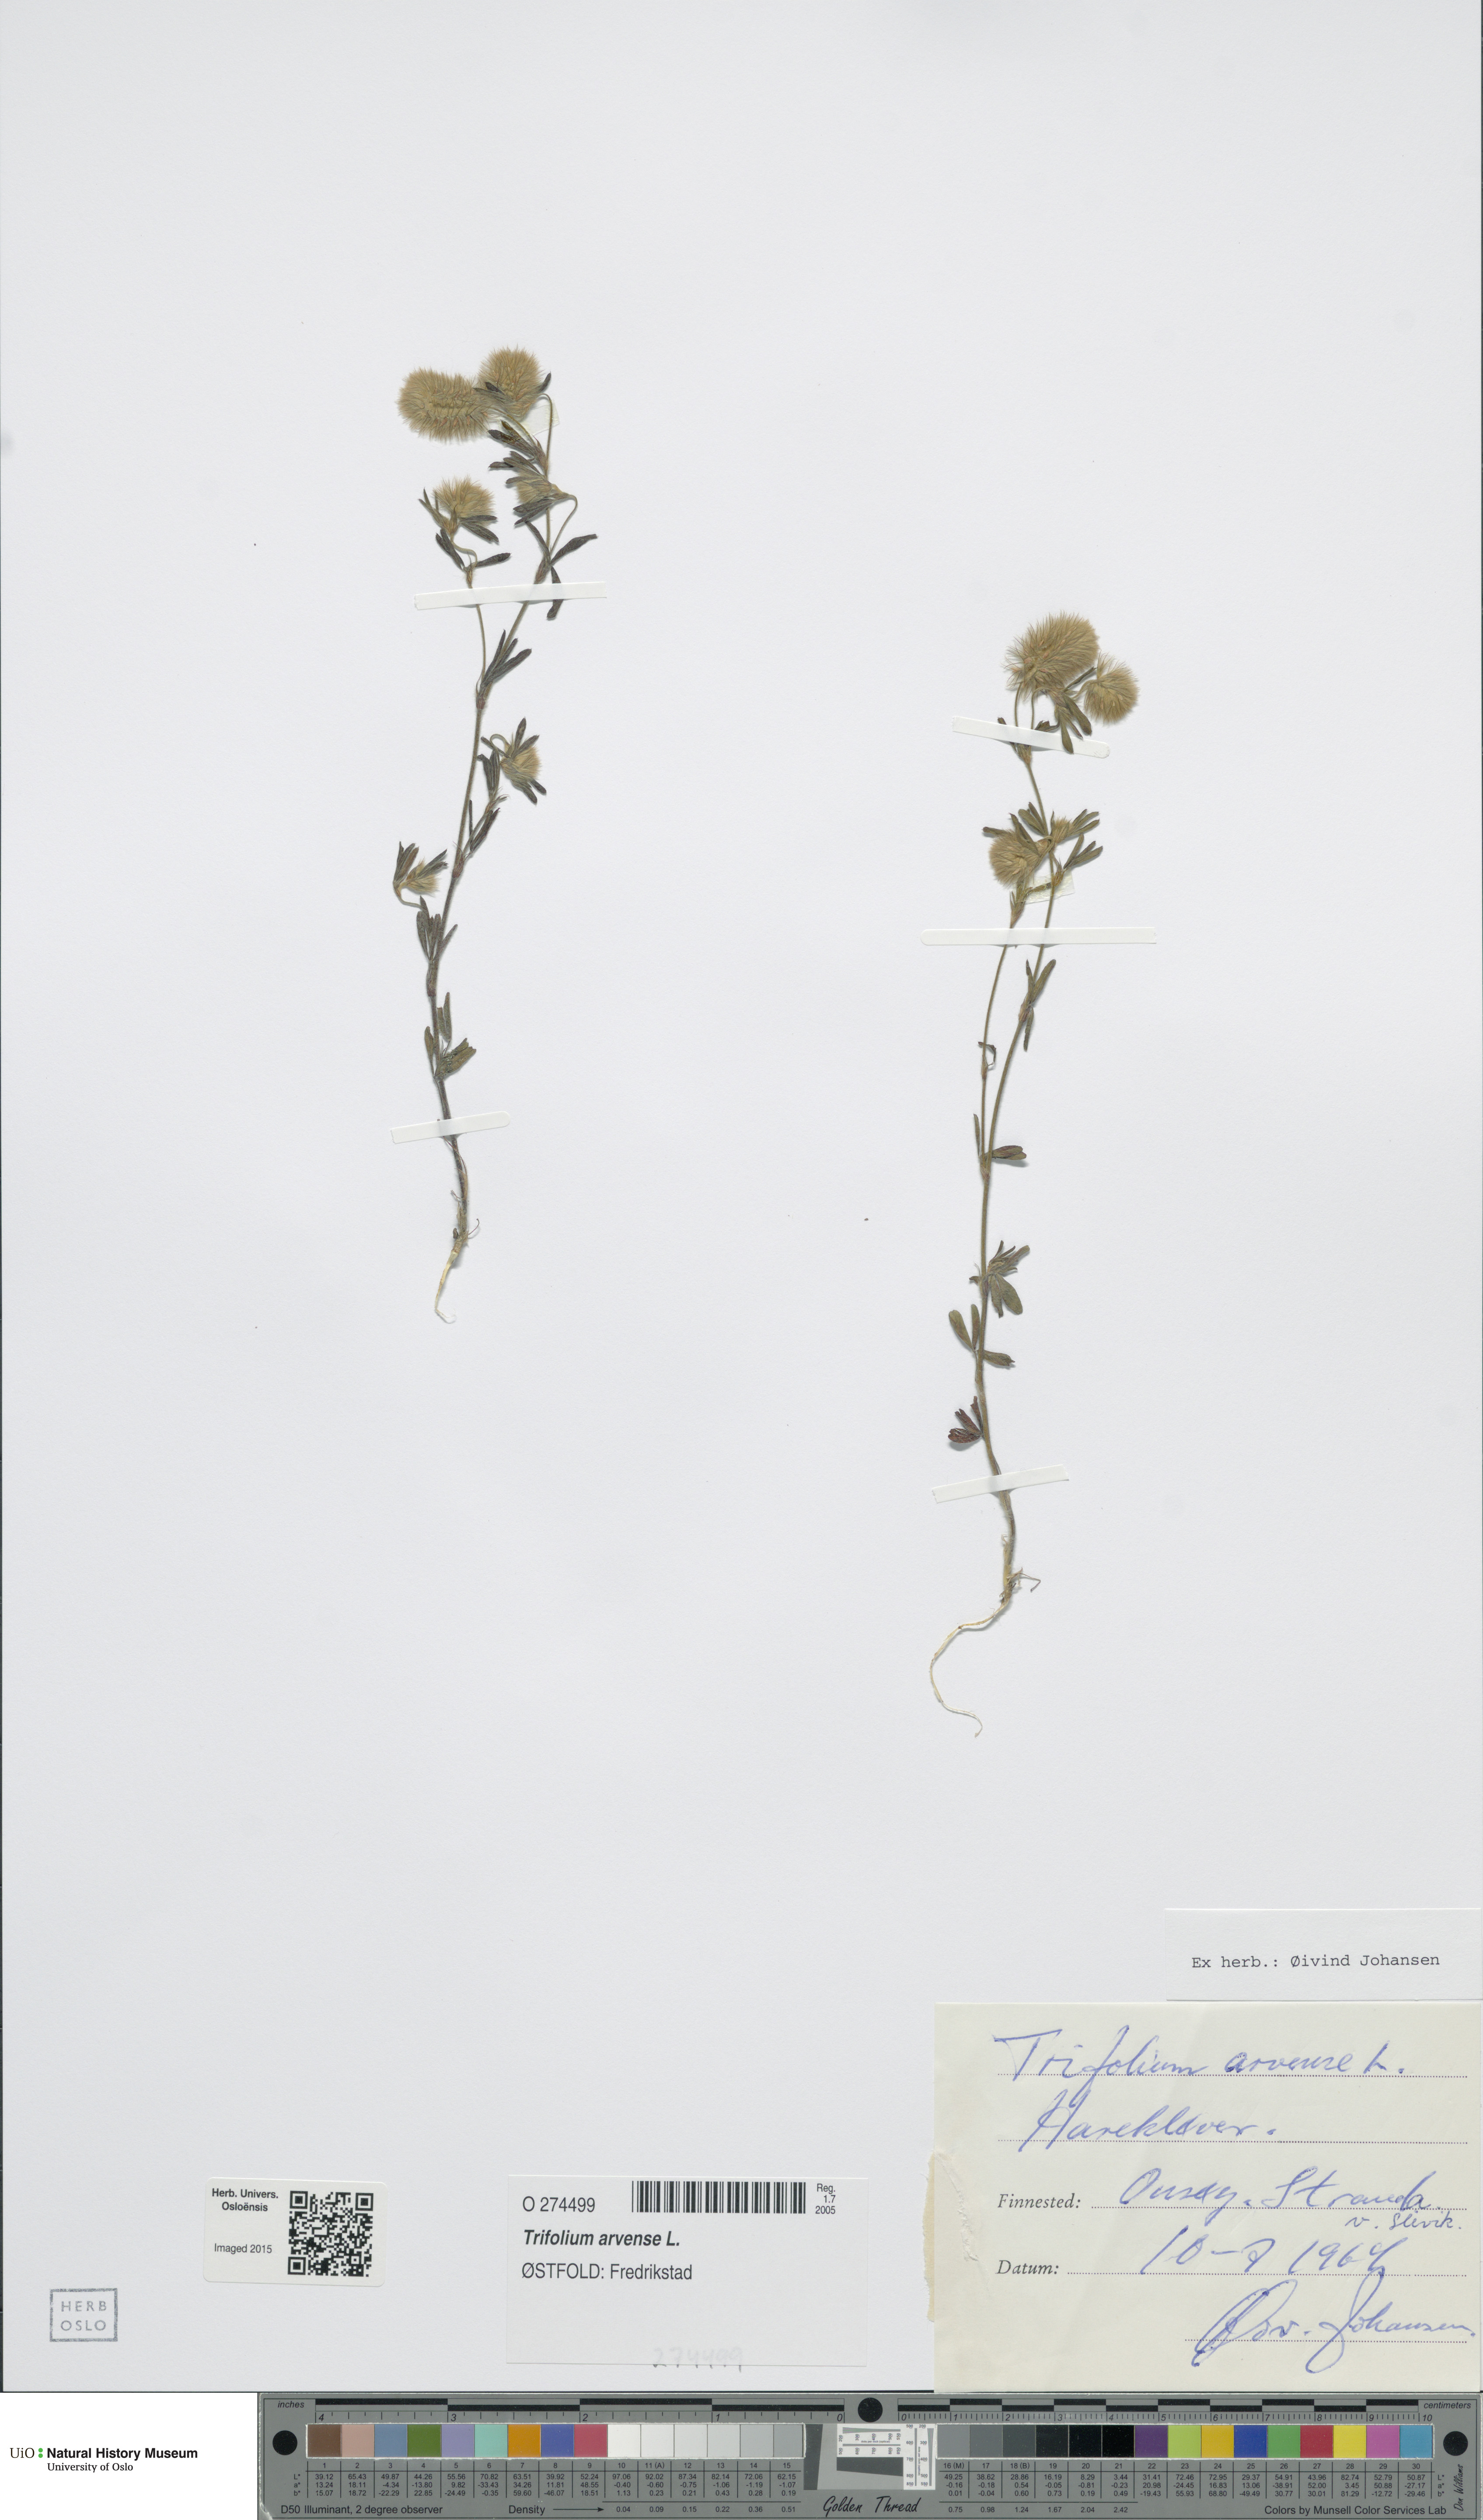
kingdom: Plantae
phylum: Tracheophyta
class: Magnoliopsida
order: Fabales
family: Fabaceae
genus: Trifolium
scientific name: Trifolium arvense
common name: Hare's-foot clover
